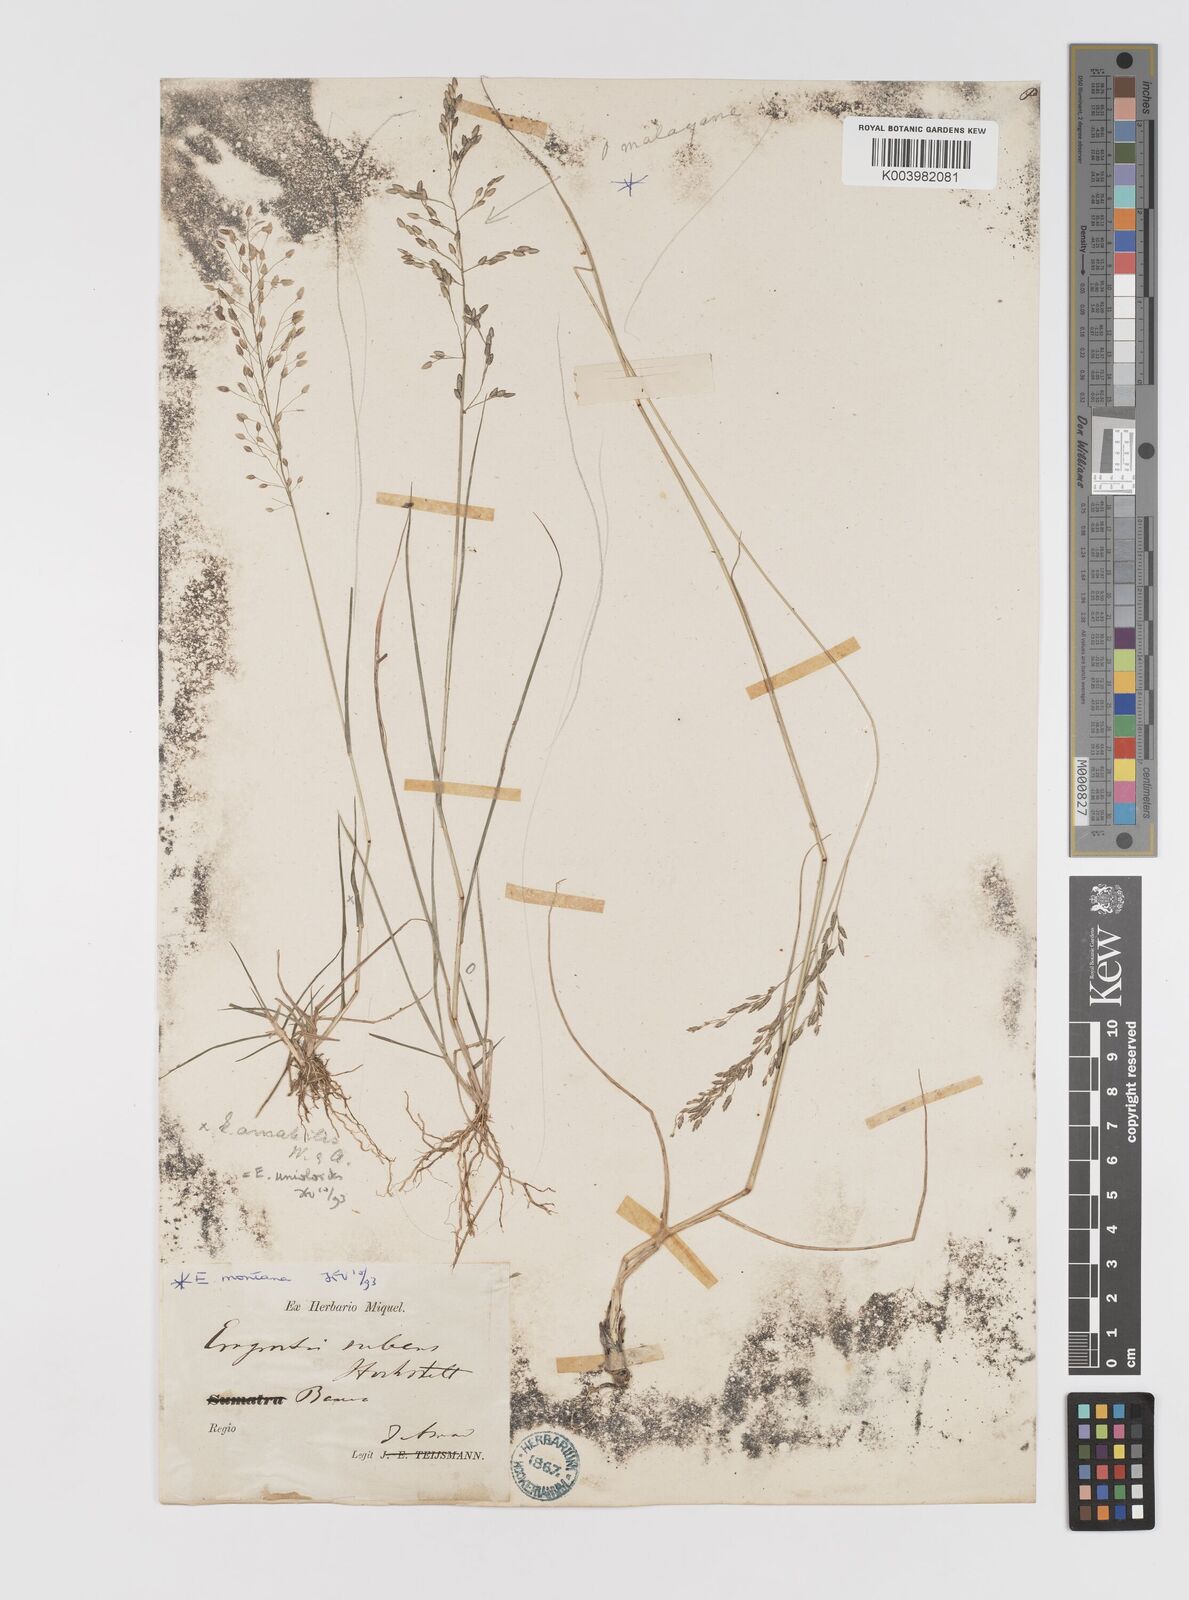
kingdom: Plantae
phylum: Tracheophyta
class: Liliopsida
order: Poales
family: Poaceae
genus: Eragrostis
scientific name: Eragrostis montana
